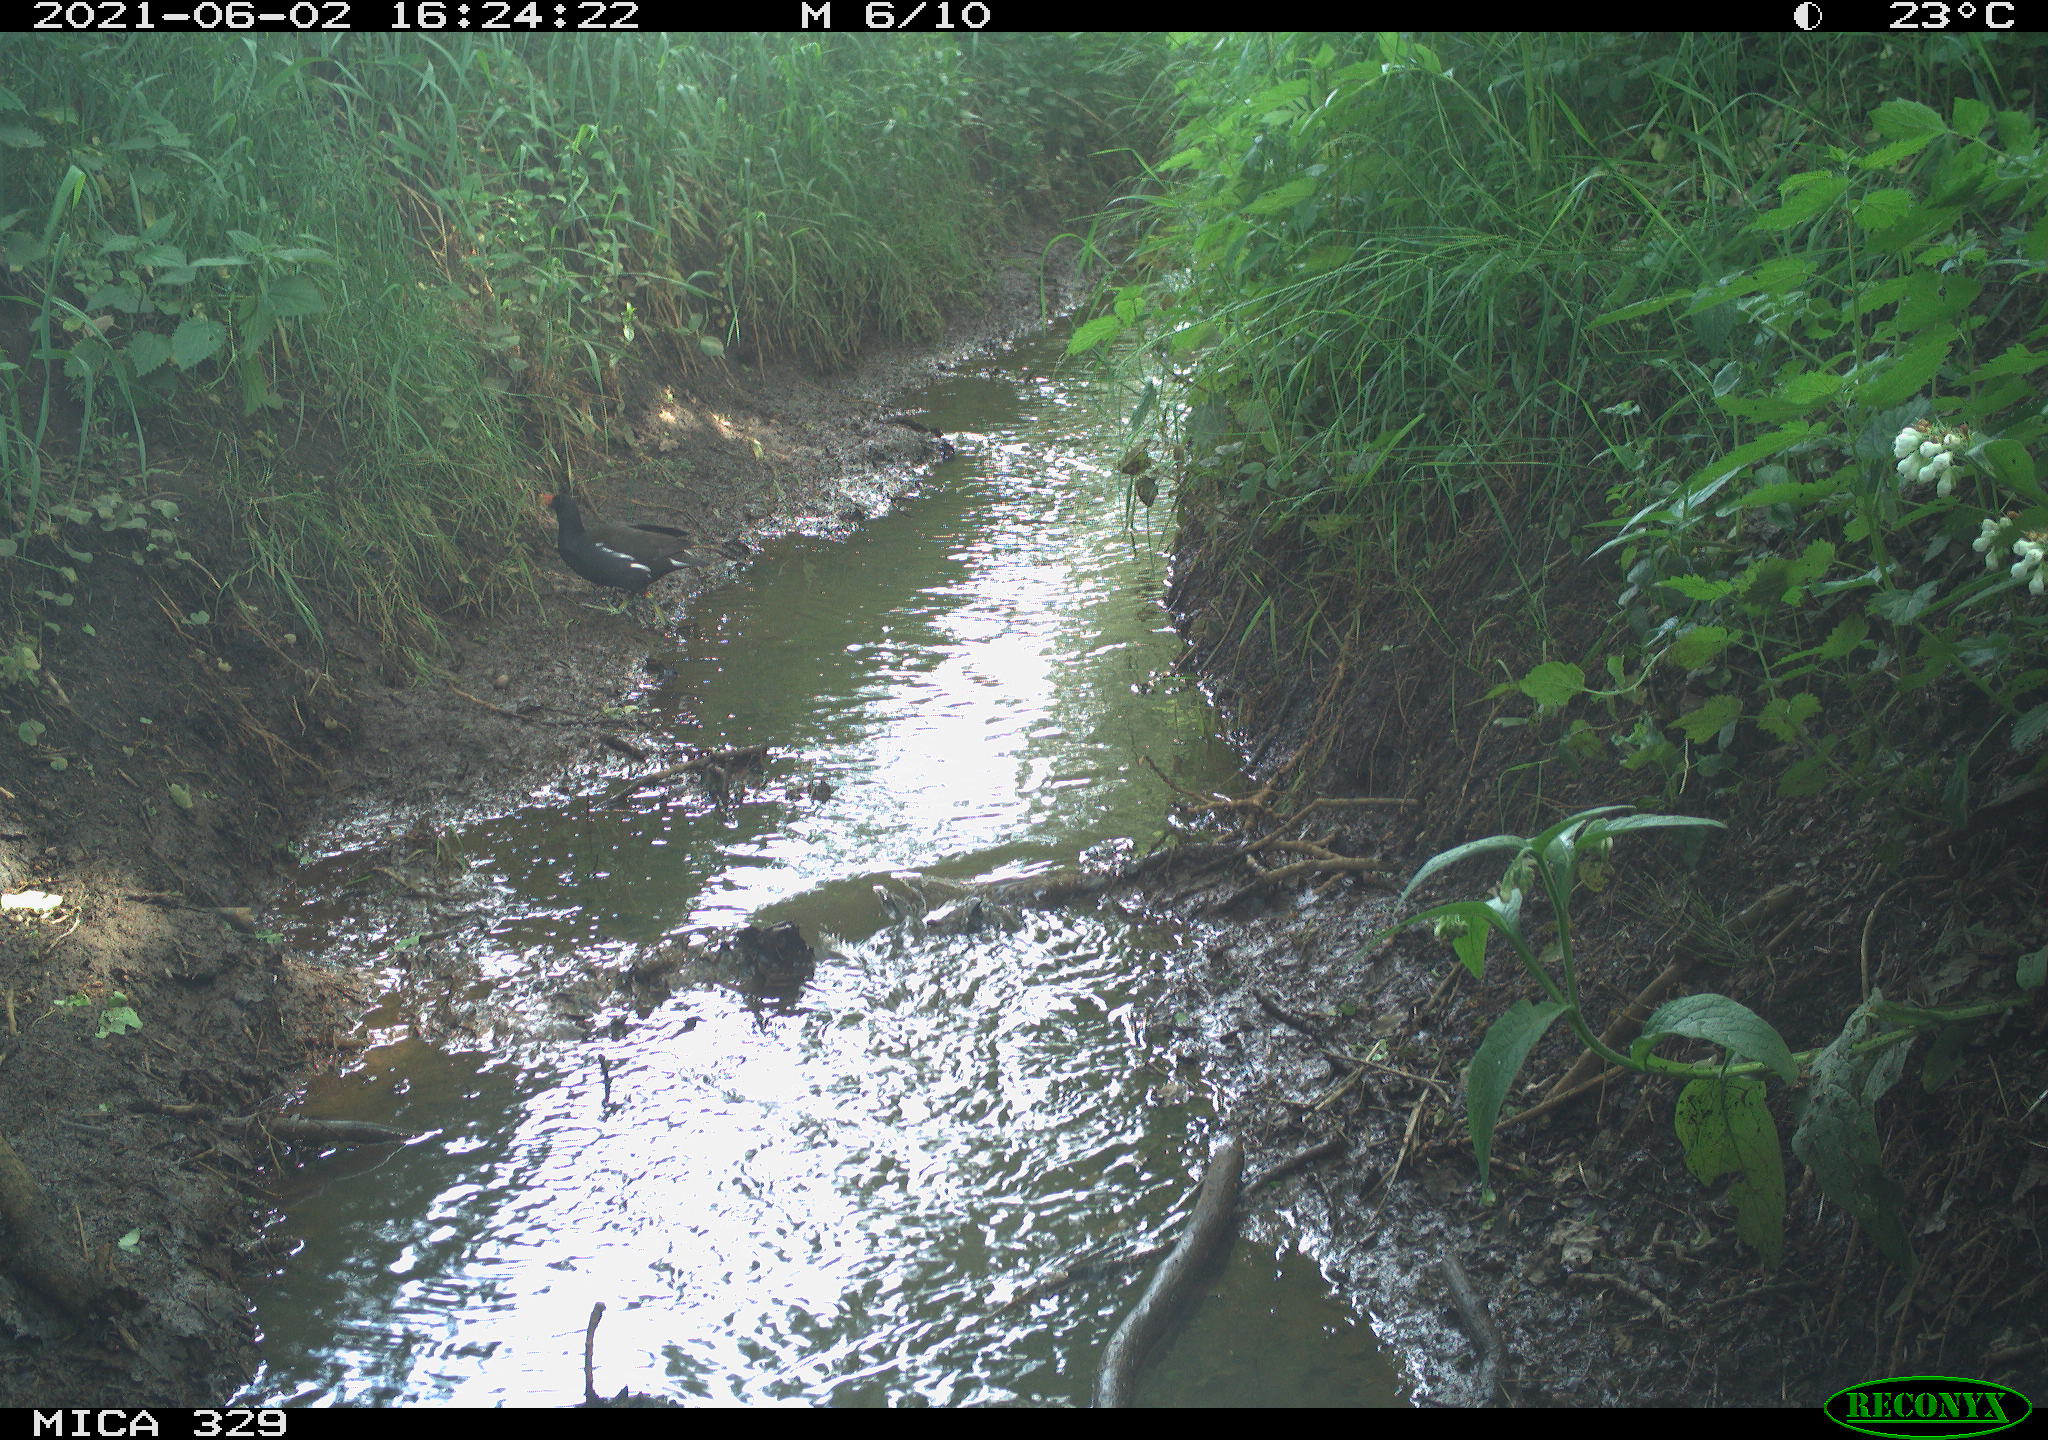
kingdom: Animalia
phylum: Chordata
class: Aves
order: Gruiformes
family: Rallidae
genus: Gallinula
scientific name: Gallinula chloropus
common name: Common moorhen
